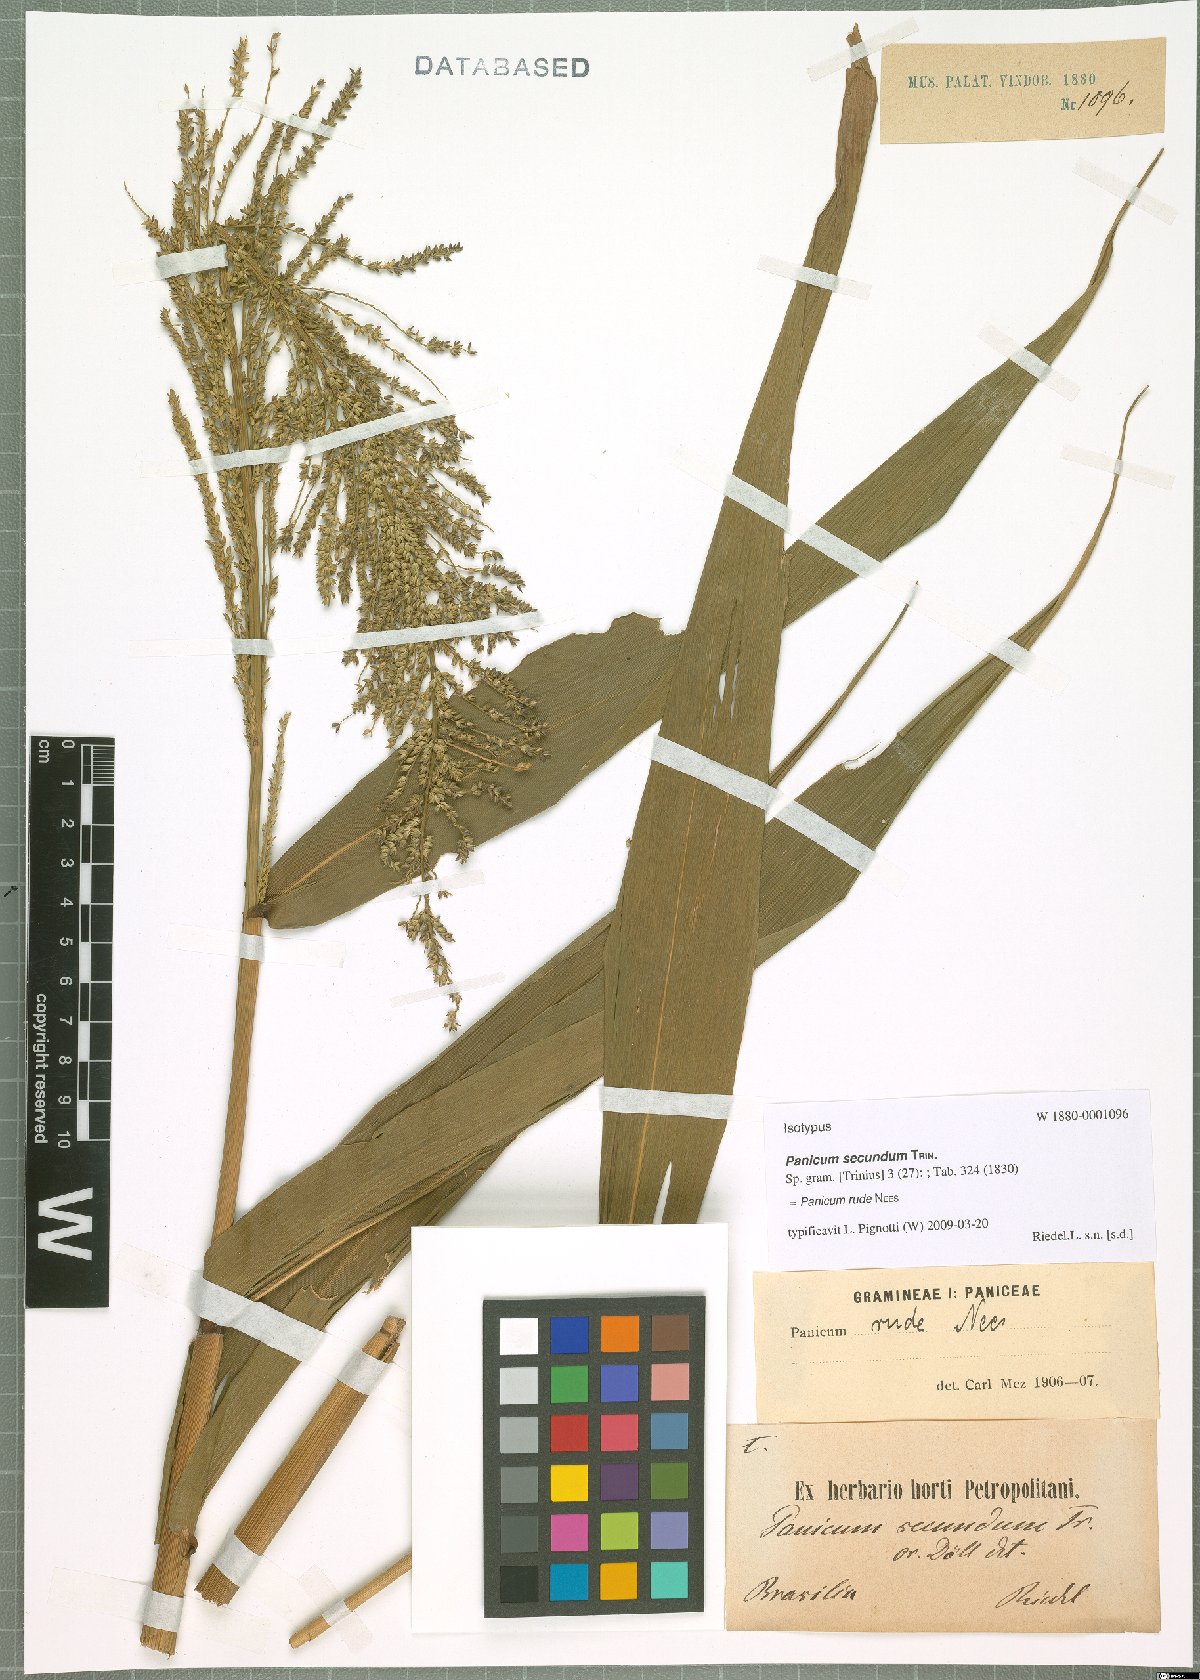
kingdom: Plantae
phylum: Tracheophyta
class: Liliopsida
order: Poales
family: Poaceae
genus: Ocellochloa
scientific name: Ocellochloa rudis
